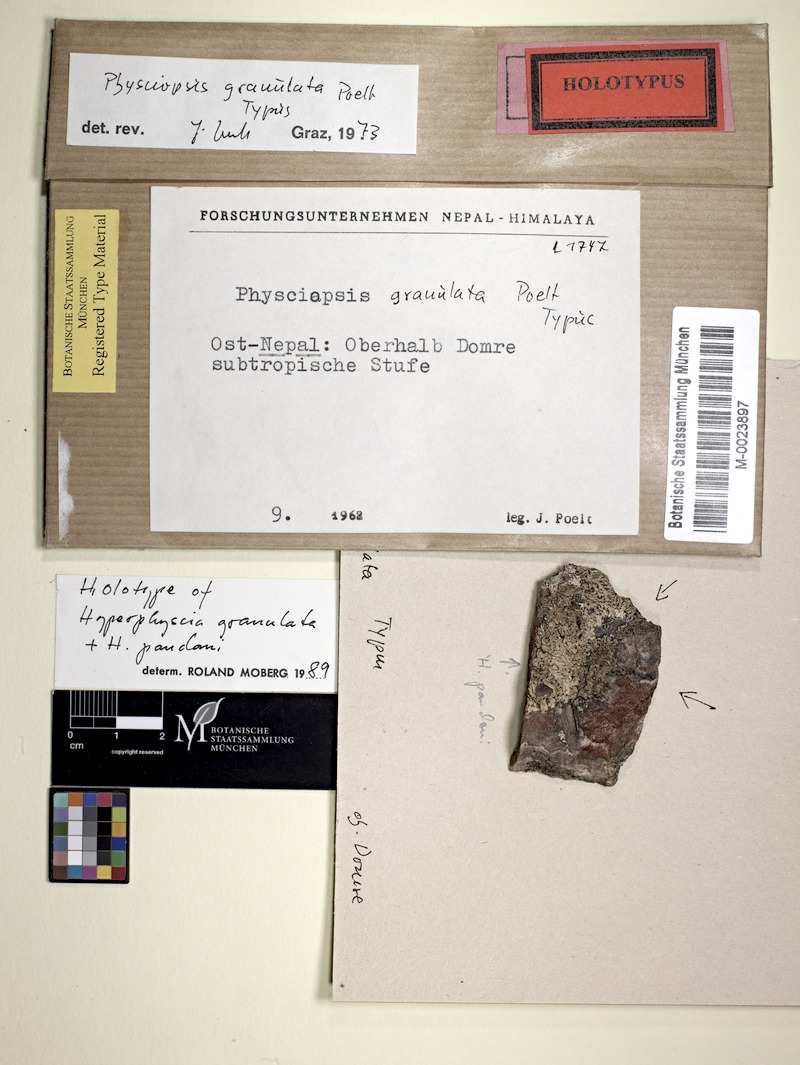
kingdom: Fungi
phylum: Ascomycota
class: Lecanoromycetes
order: Caliciales
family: Physciaceae
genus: Hyperphyscia
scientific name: Hyperphyscia granulata
